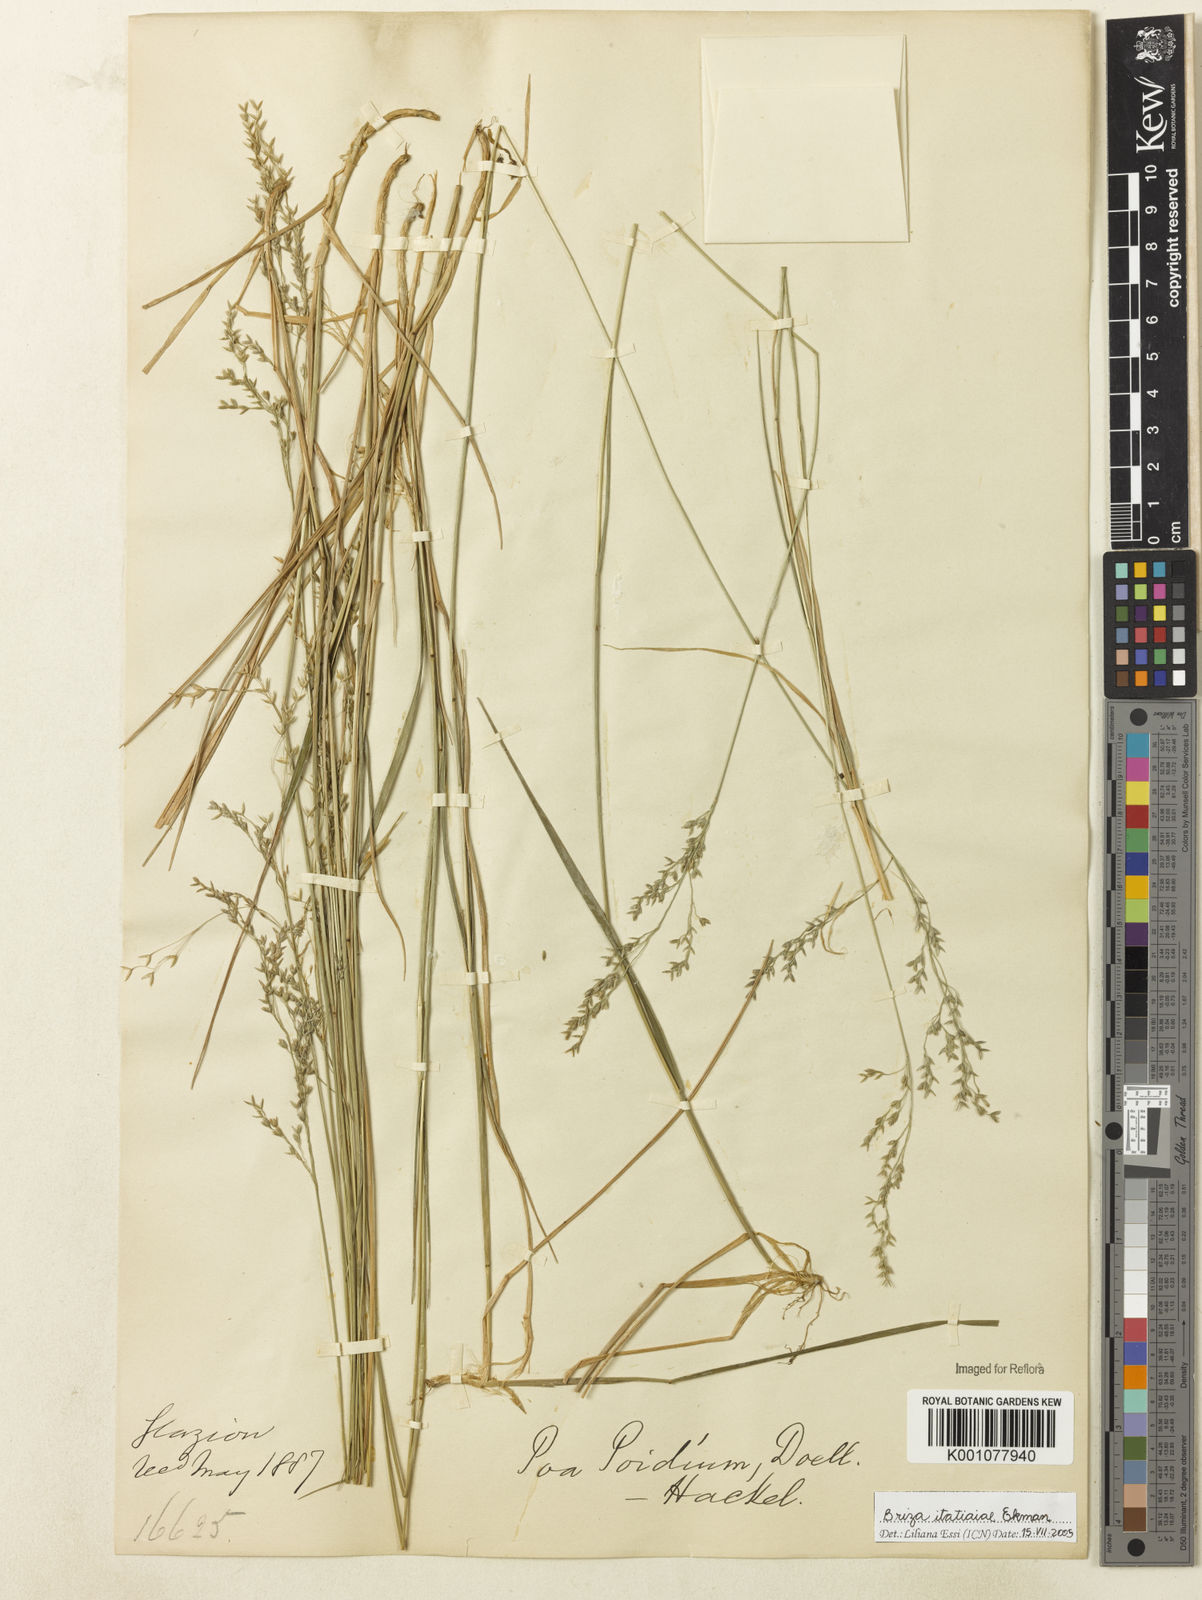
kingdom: Plantae
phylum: Tracheophyta
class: Liliopsida
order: Poales
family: Poaceae
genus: Poidium
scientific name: Poidium itatiaiae
